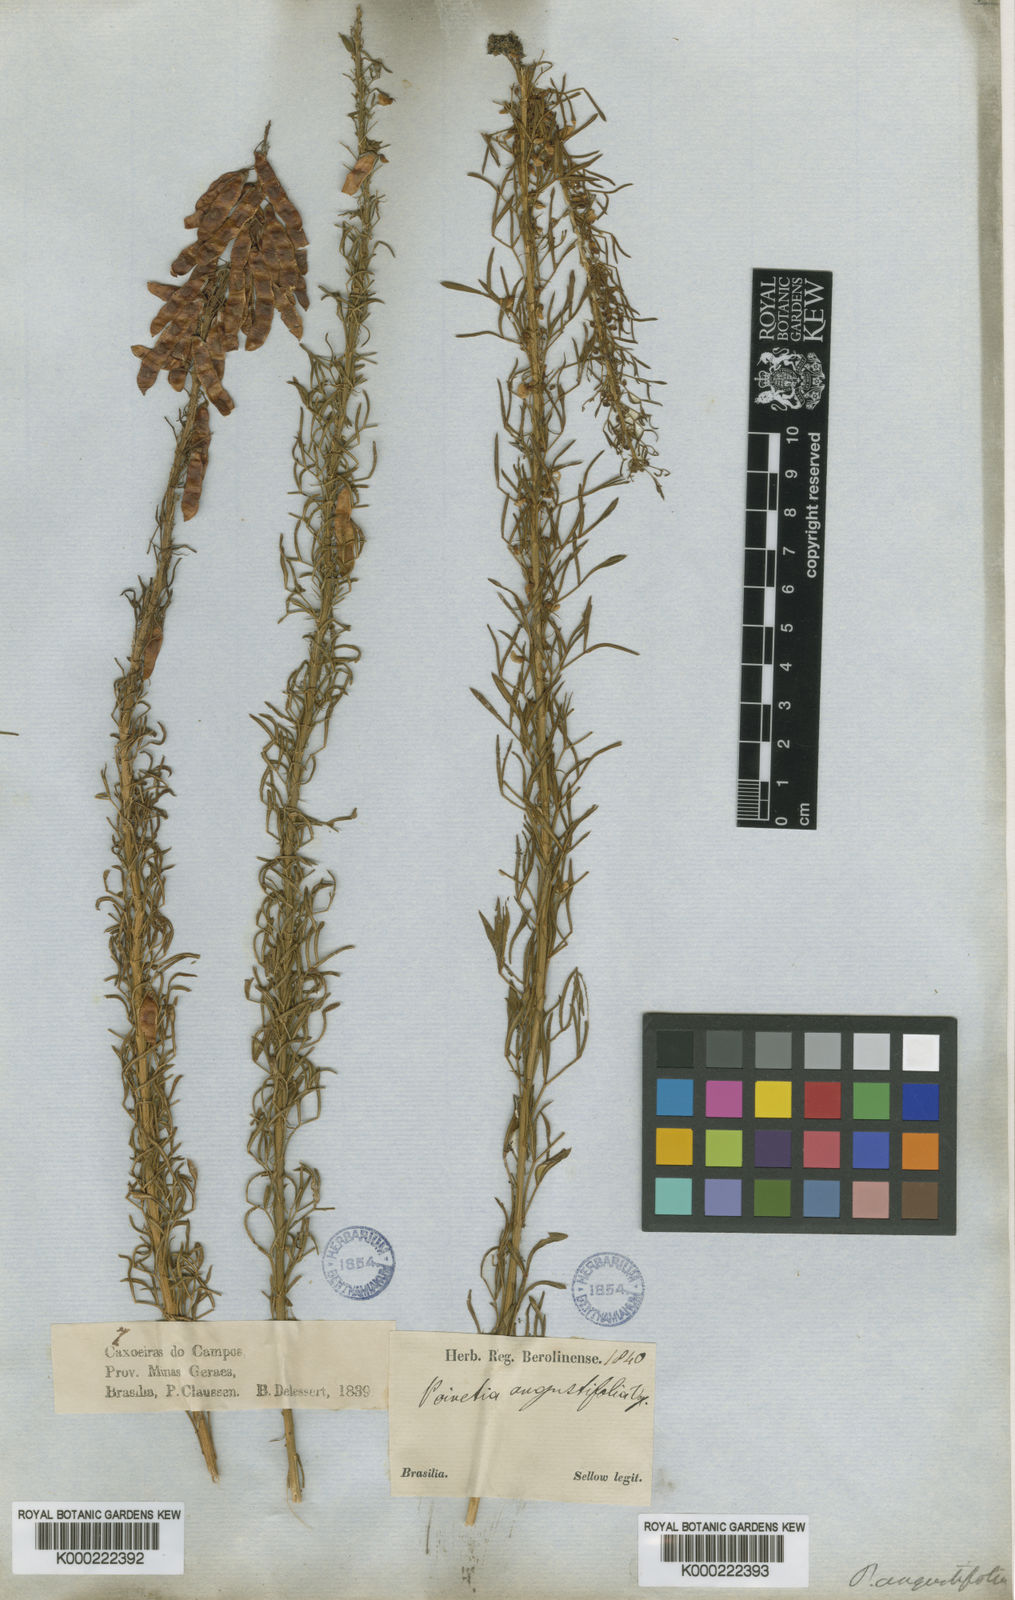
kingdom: Plantae
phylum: Tracheophyta
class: Magnoliopsida
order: Fabales
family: Fabaceae
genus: Poiretia
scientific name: Poiretia angustifolia
